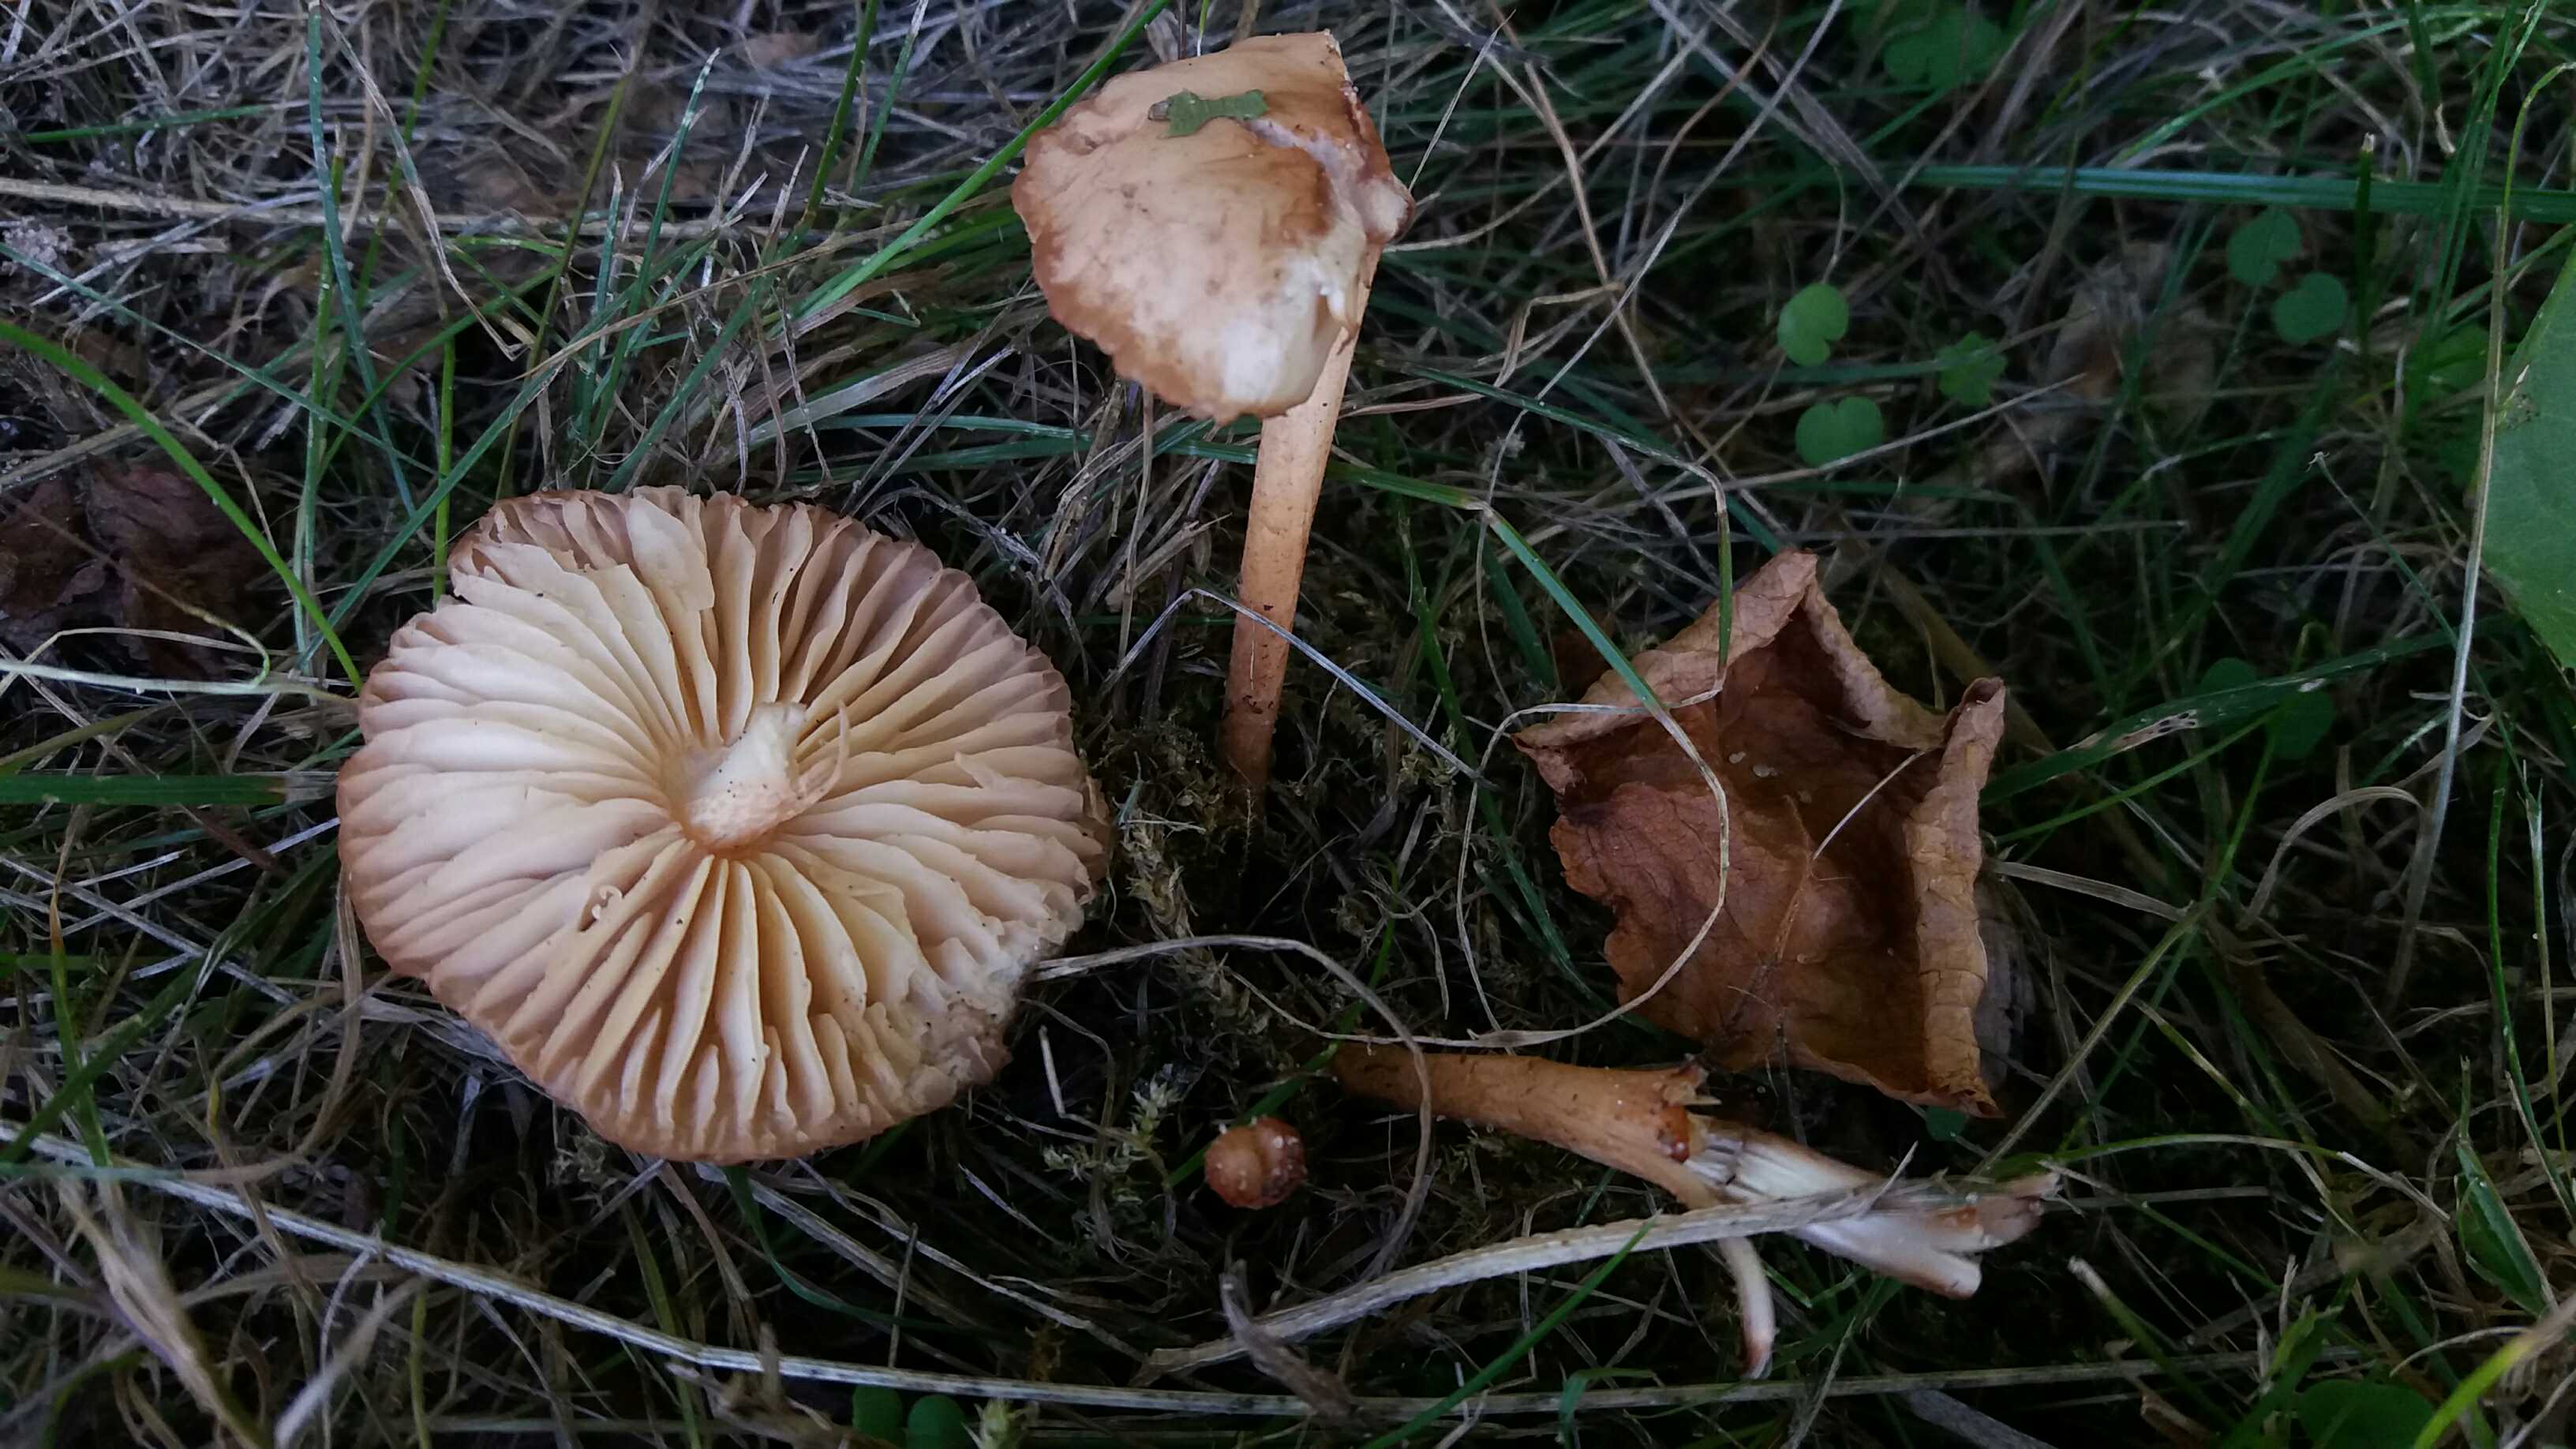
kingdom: Fungi
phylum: Basidiomycota
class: Agaricomycetes
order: Agaricales
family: Marasmiaceae
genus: Marasmius
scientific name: Marasmius oreades
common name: elledans-bruskhat
